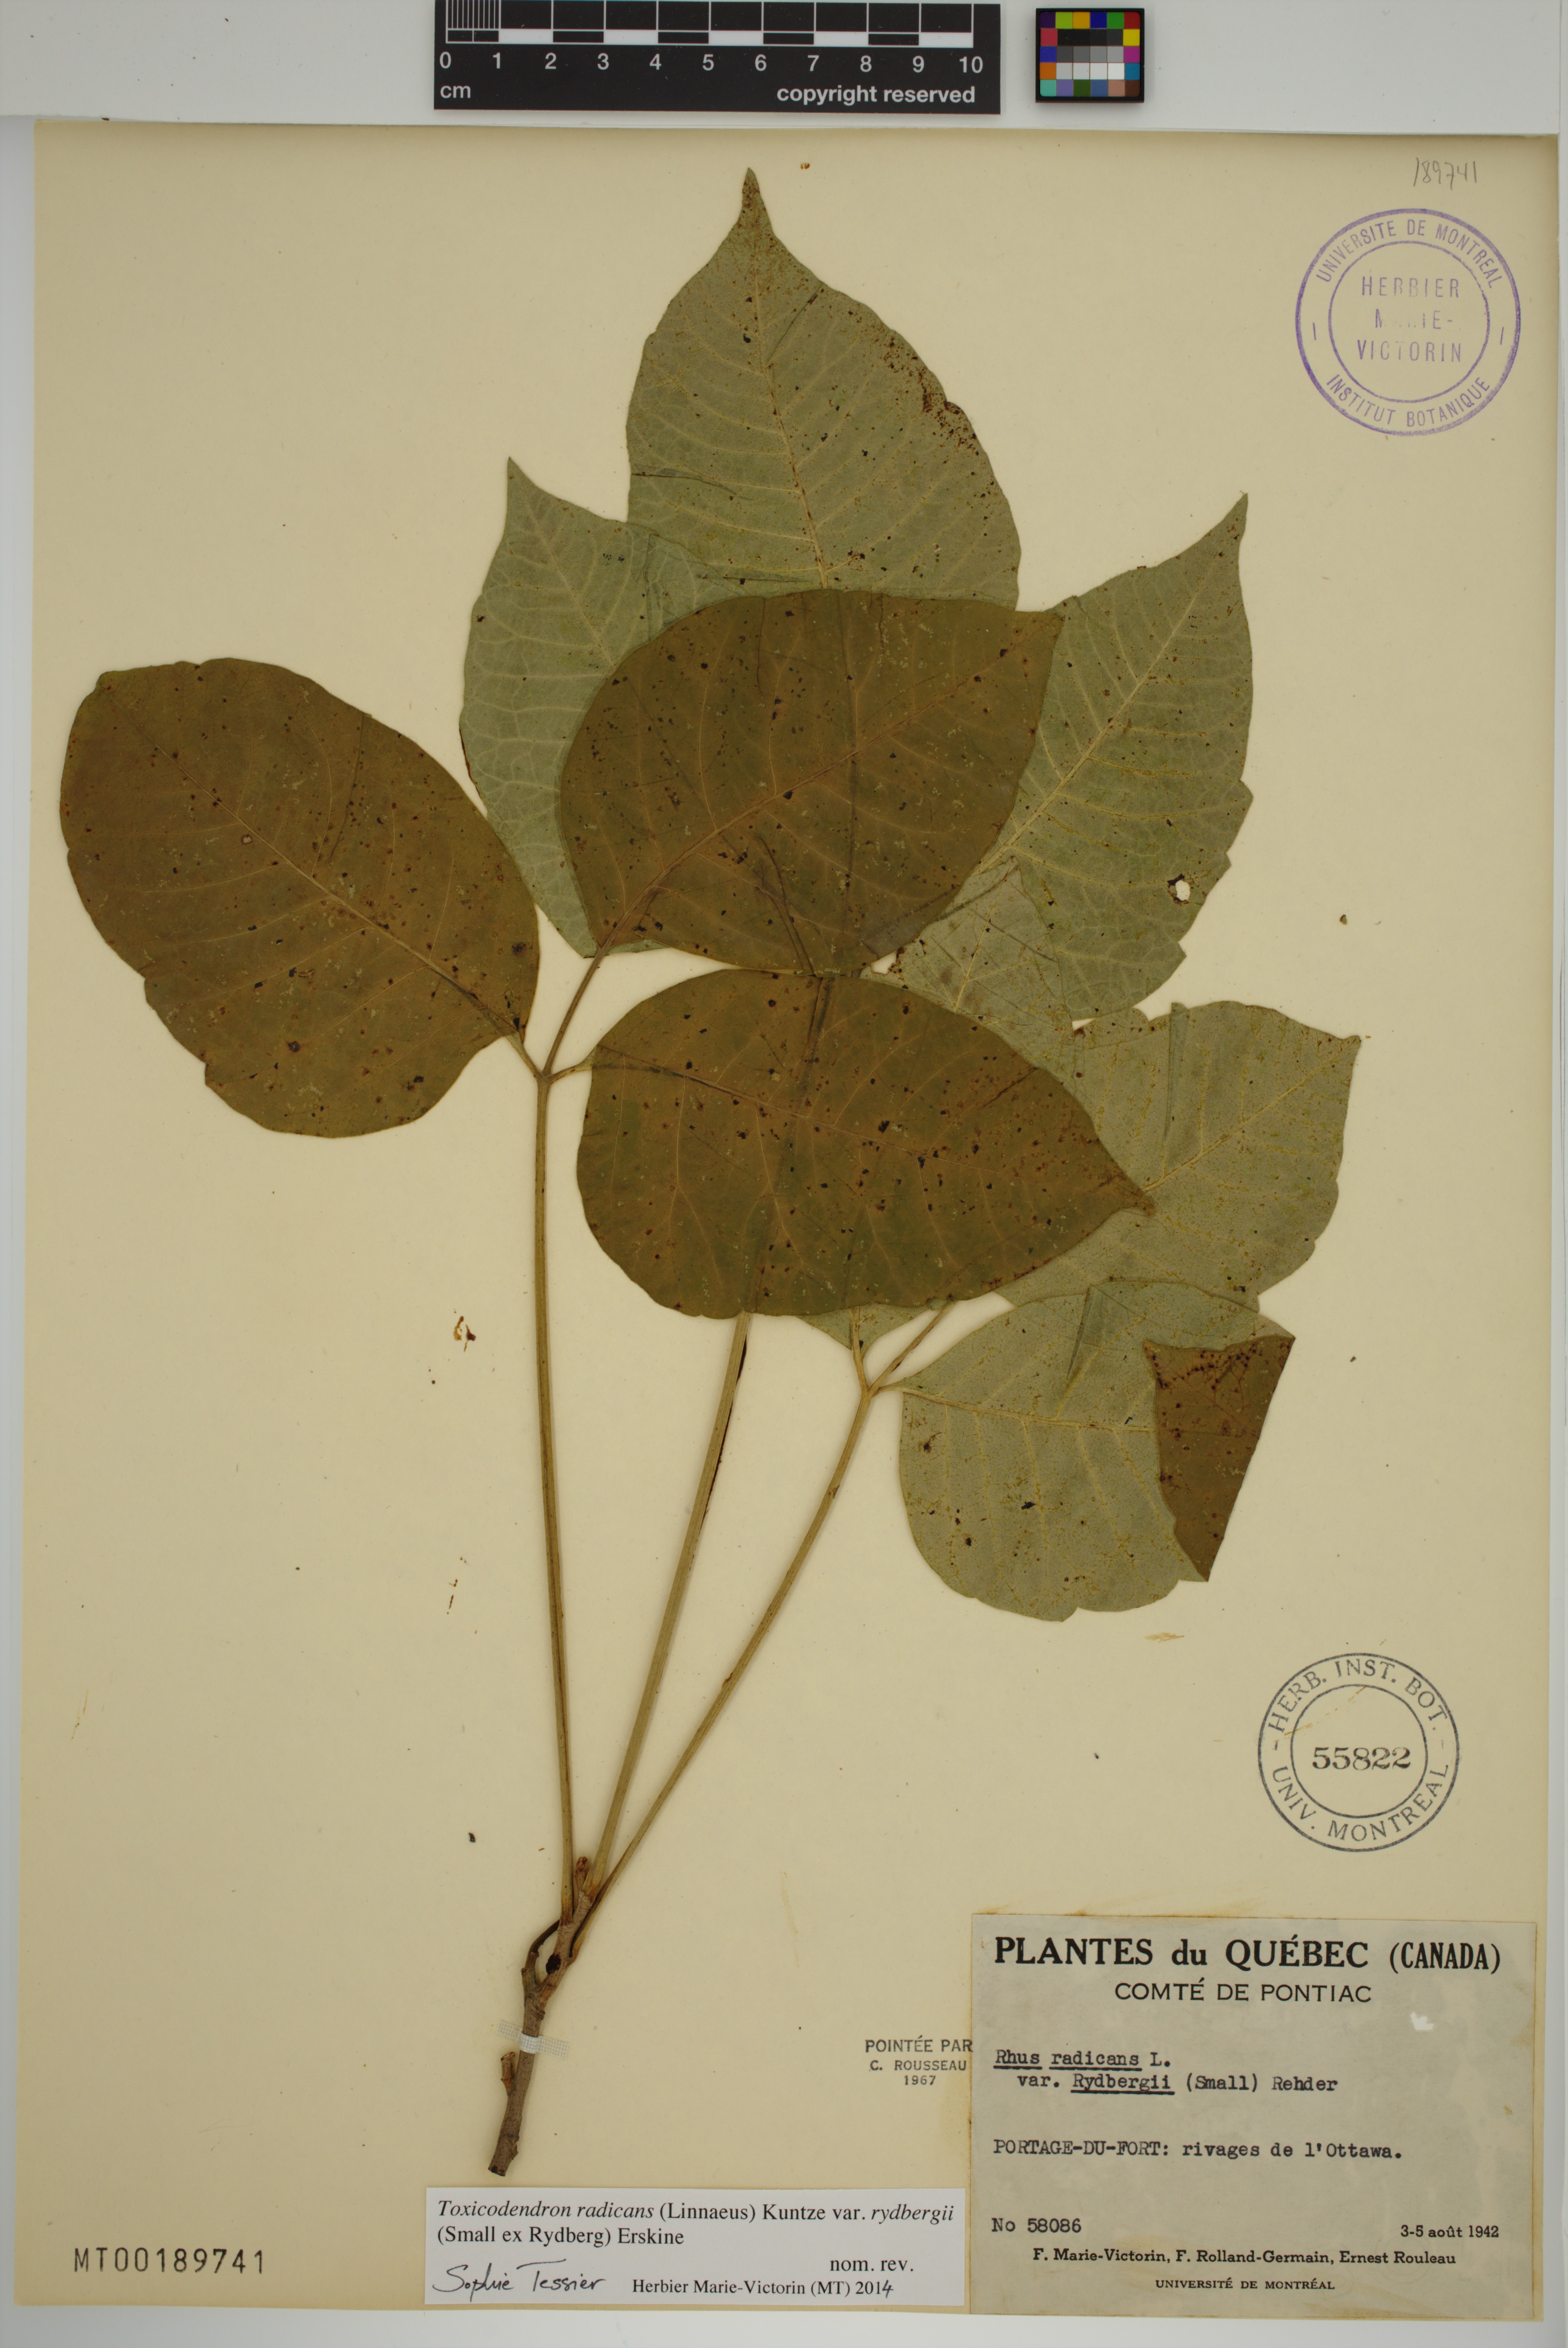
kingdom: Plantae
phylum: Tracheophyta
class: Magnoliopsida
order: Sapindales
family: Anacardiaceae
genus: Toxicodendron
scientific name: Toxicodendron rydbergii
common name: Rydberg's poison-ivy
